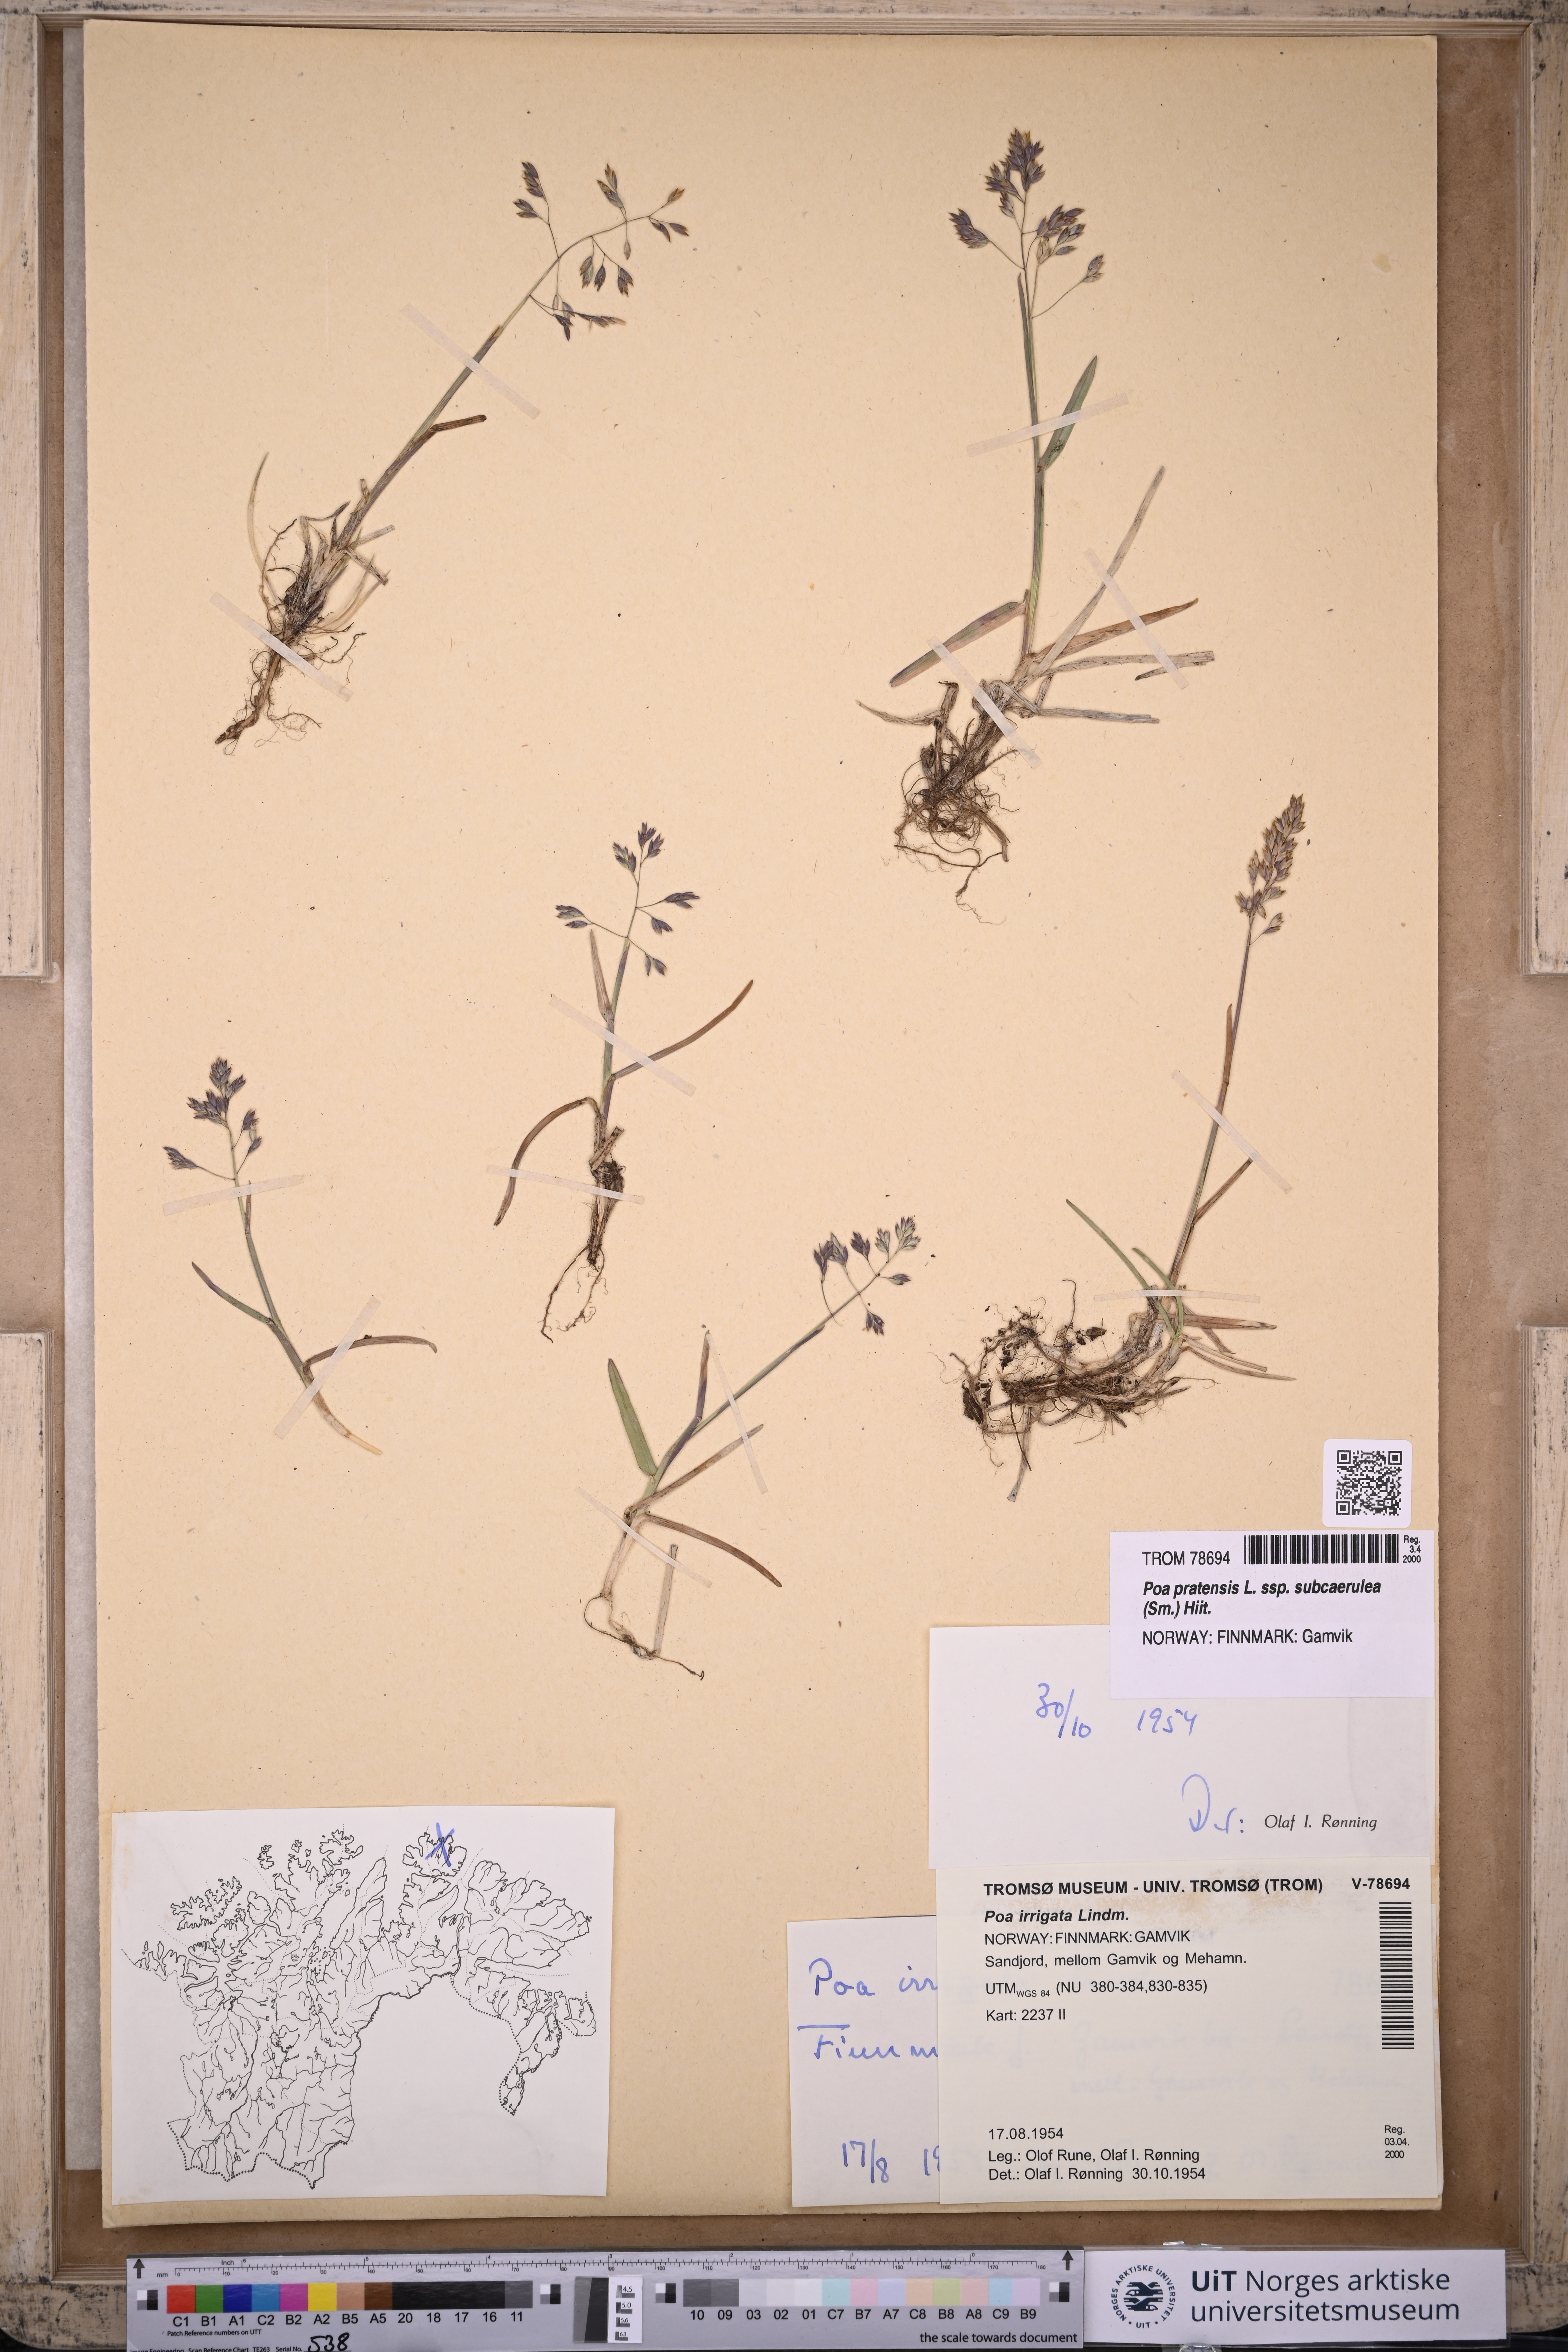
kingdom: Plantae
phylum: Tracheophyta
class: Liliopsida
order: Poales
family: Poaceae
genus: Poa
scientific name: Poa humilis
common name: Spreading meadow-grass
